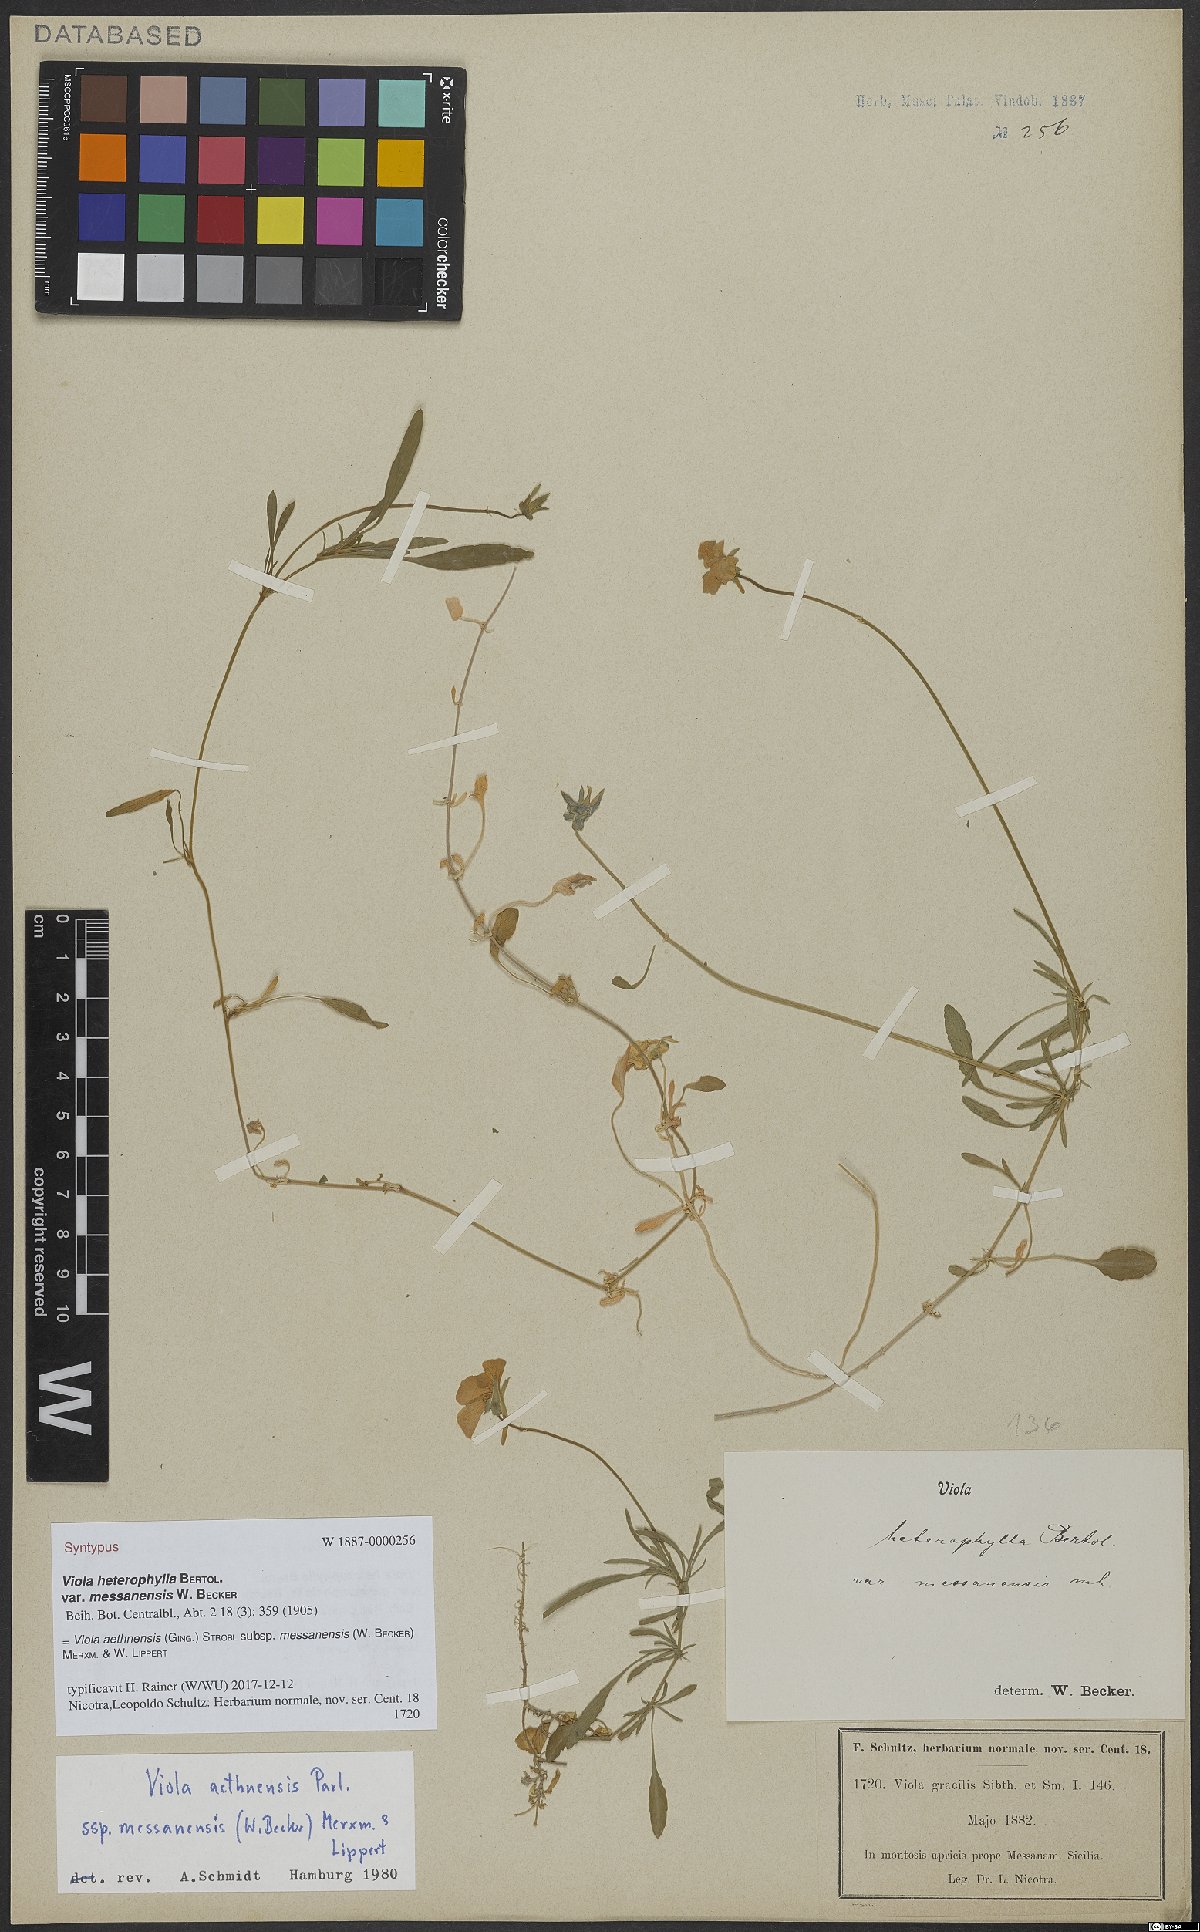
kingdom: Plantae
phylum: Tracheophyta
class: Magnoliopsida
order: Malpighiales
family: Violaceae
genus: Viola
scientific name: Viola aethnensis
